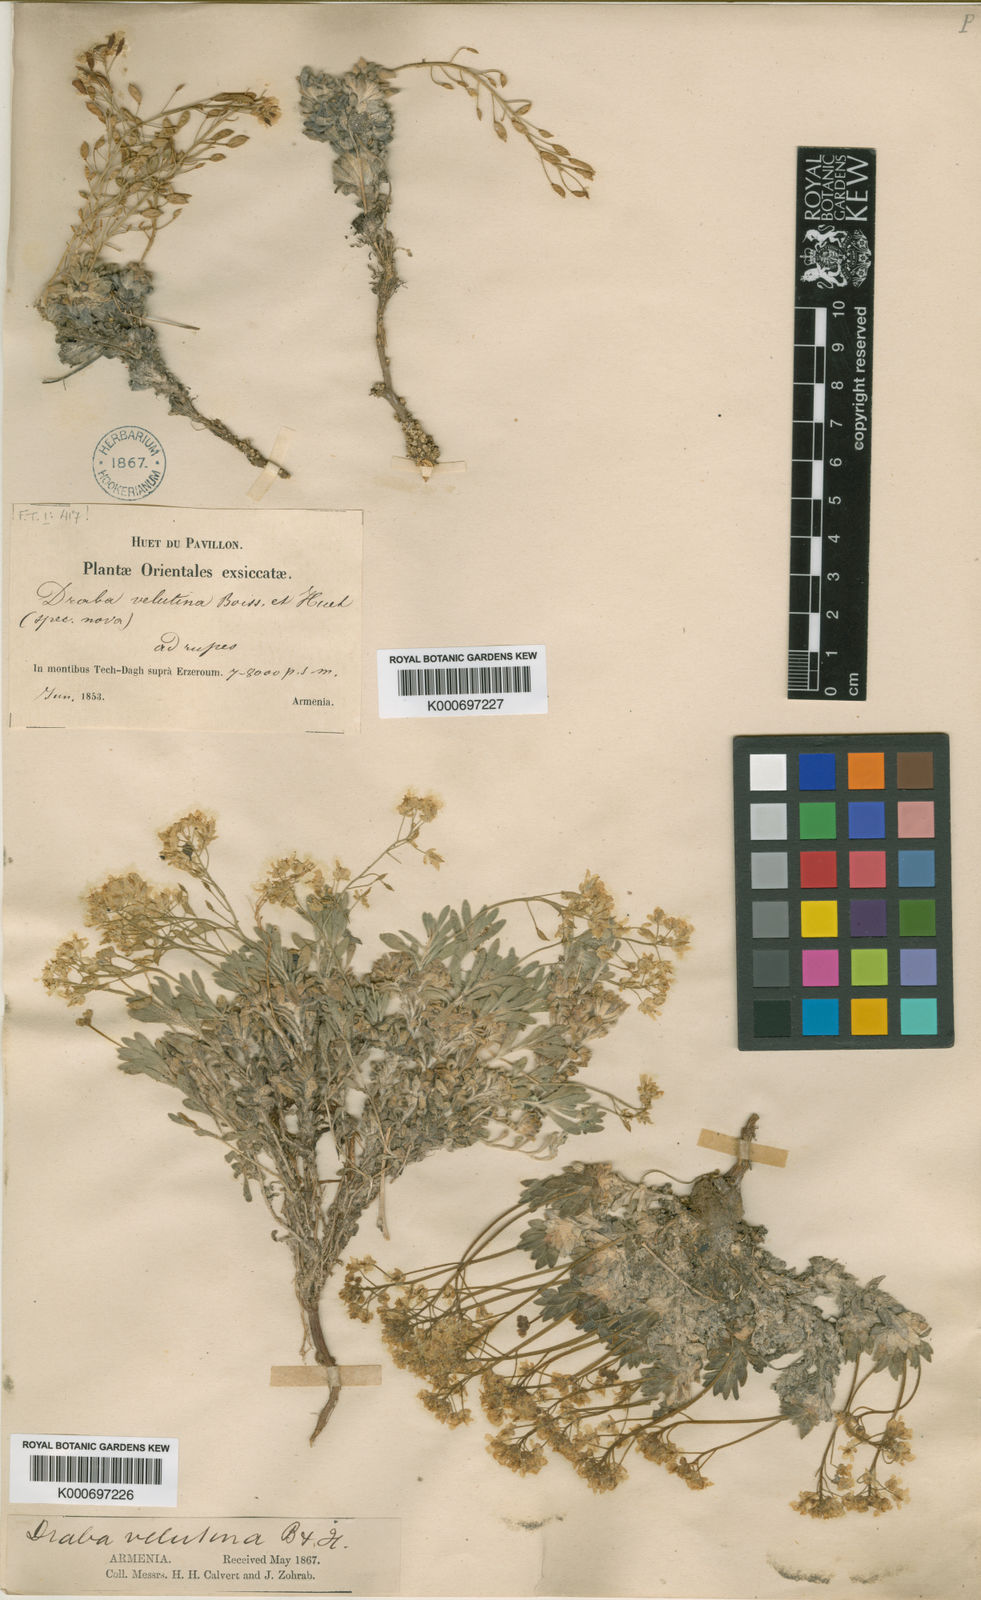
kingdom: Plantae
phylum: Tracheophyta
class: Magnoliopsida
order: Brassicales
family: Brassicaceae
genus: Draba
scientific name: Draba magellanica
